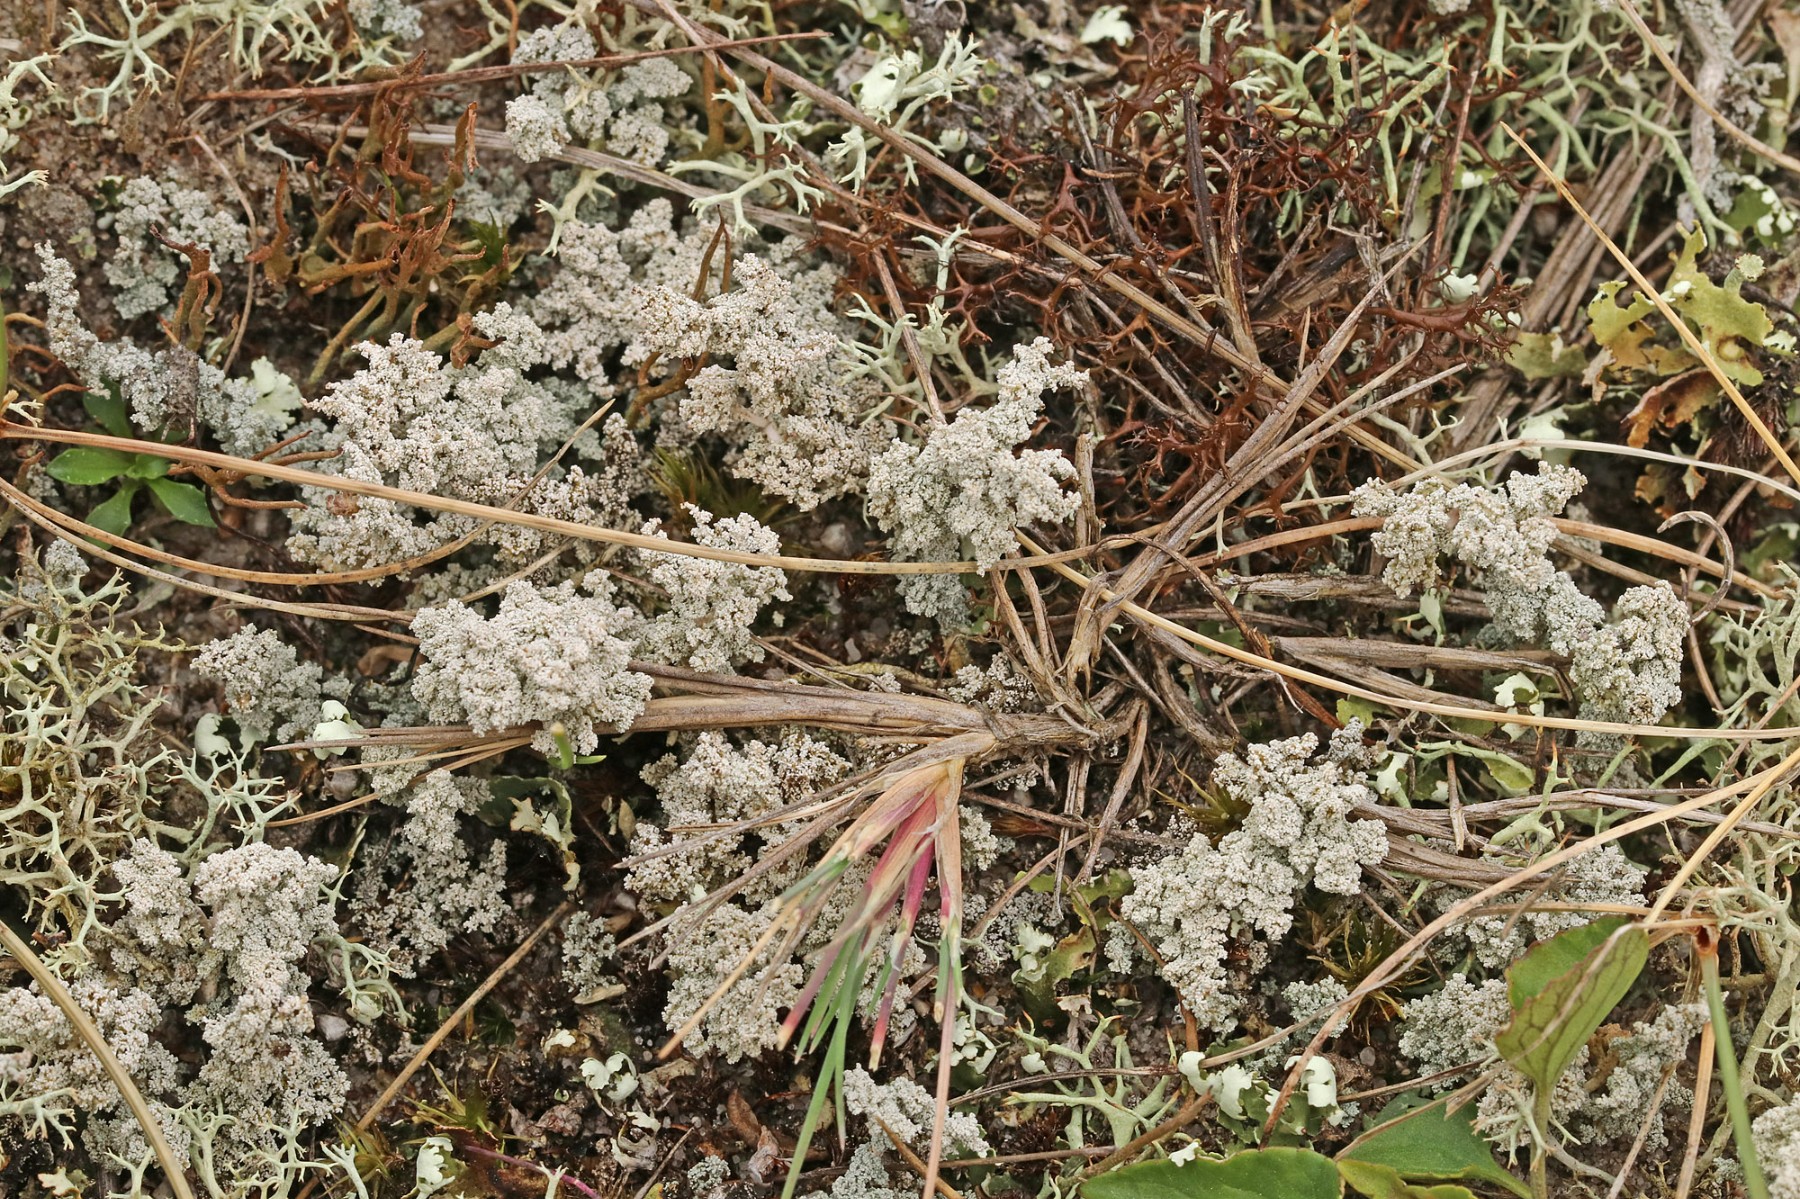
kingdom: Fungi
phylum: Ascomycota
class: Lecanoromycetes
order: Lecanorales
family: Stereocaulaceae
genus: Stereocaulon
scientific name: Stereocaulon saxatile
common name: klit-korallav
